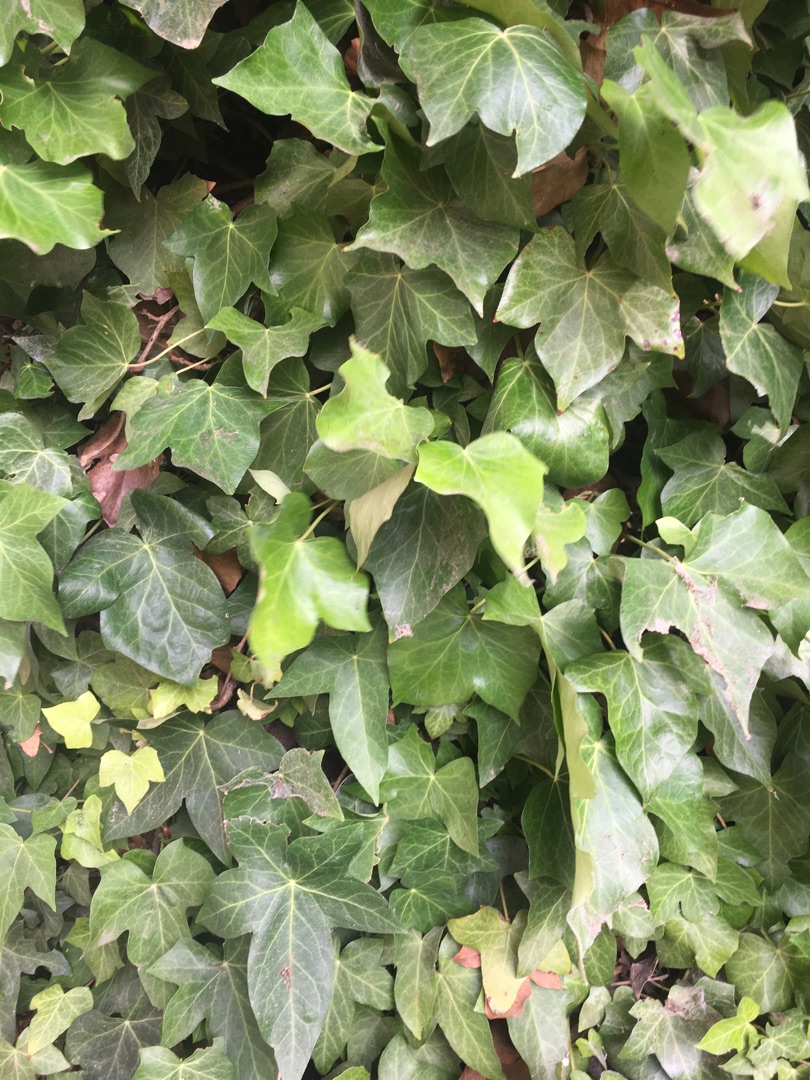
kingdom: Plantae
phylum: Tracheophyta
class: Magnoliopsida
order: Apiales
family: Araliaceae
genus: Hedera
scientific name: Hedera hibernica
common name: Irsk vedbend
